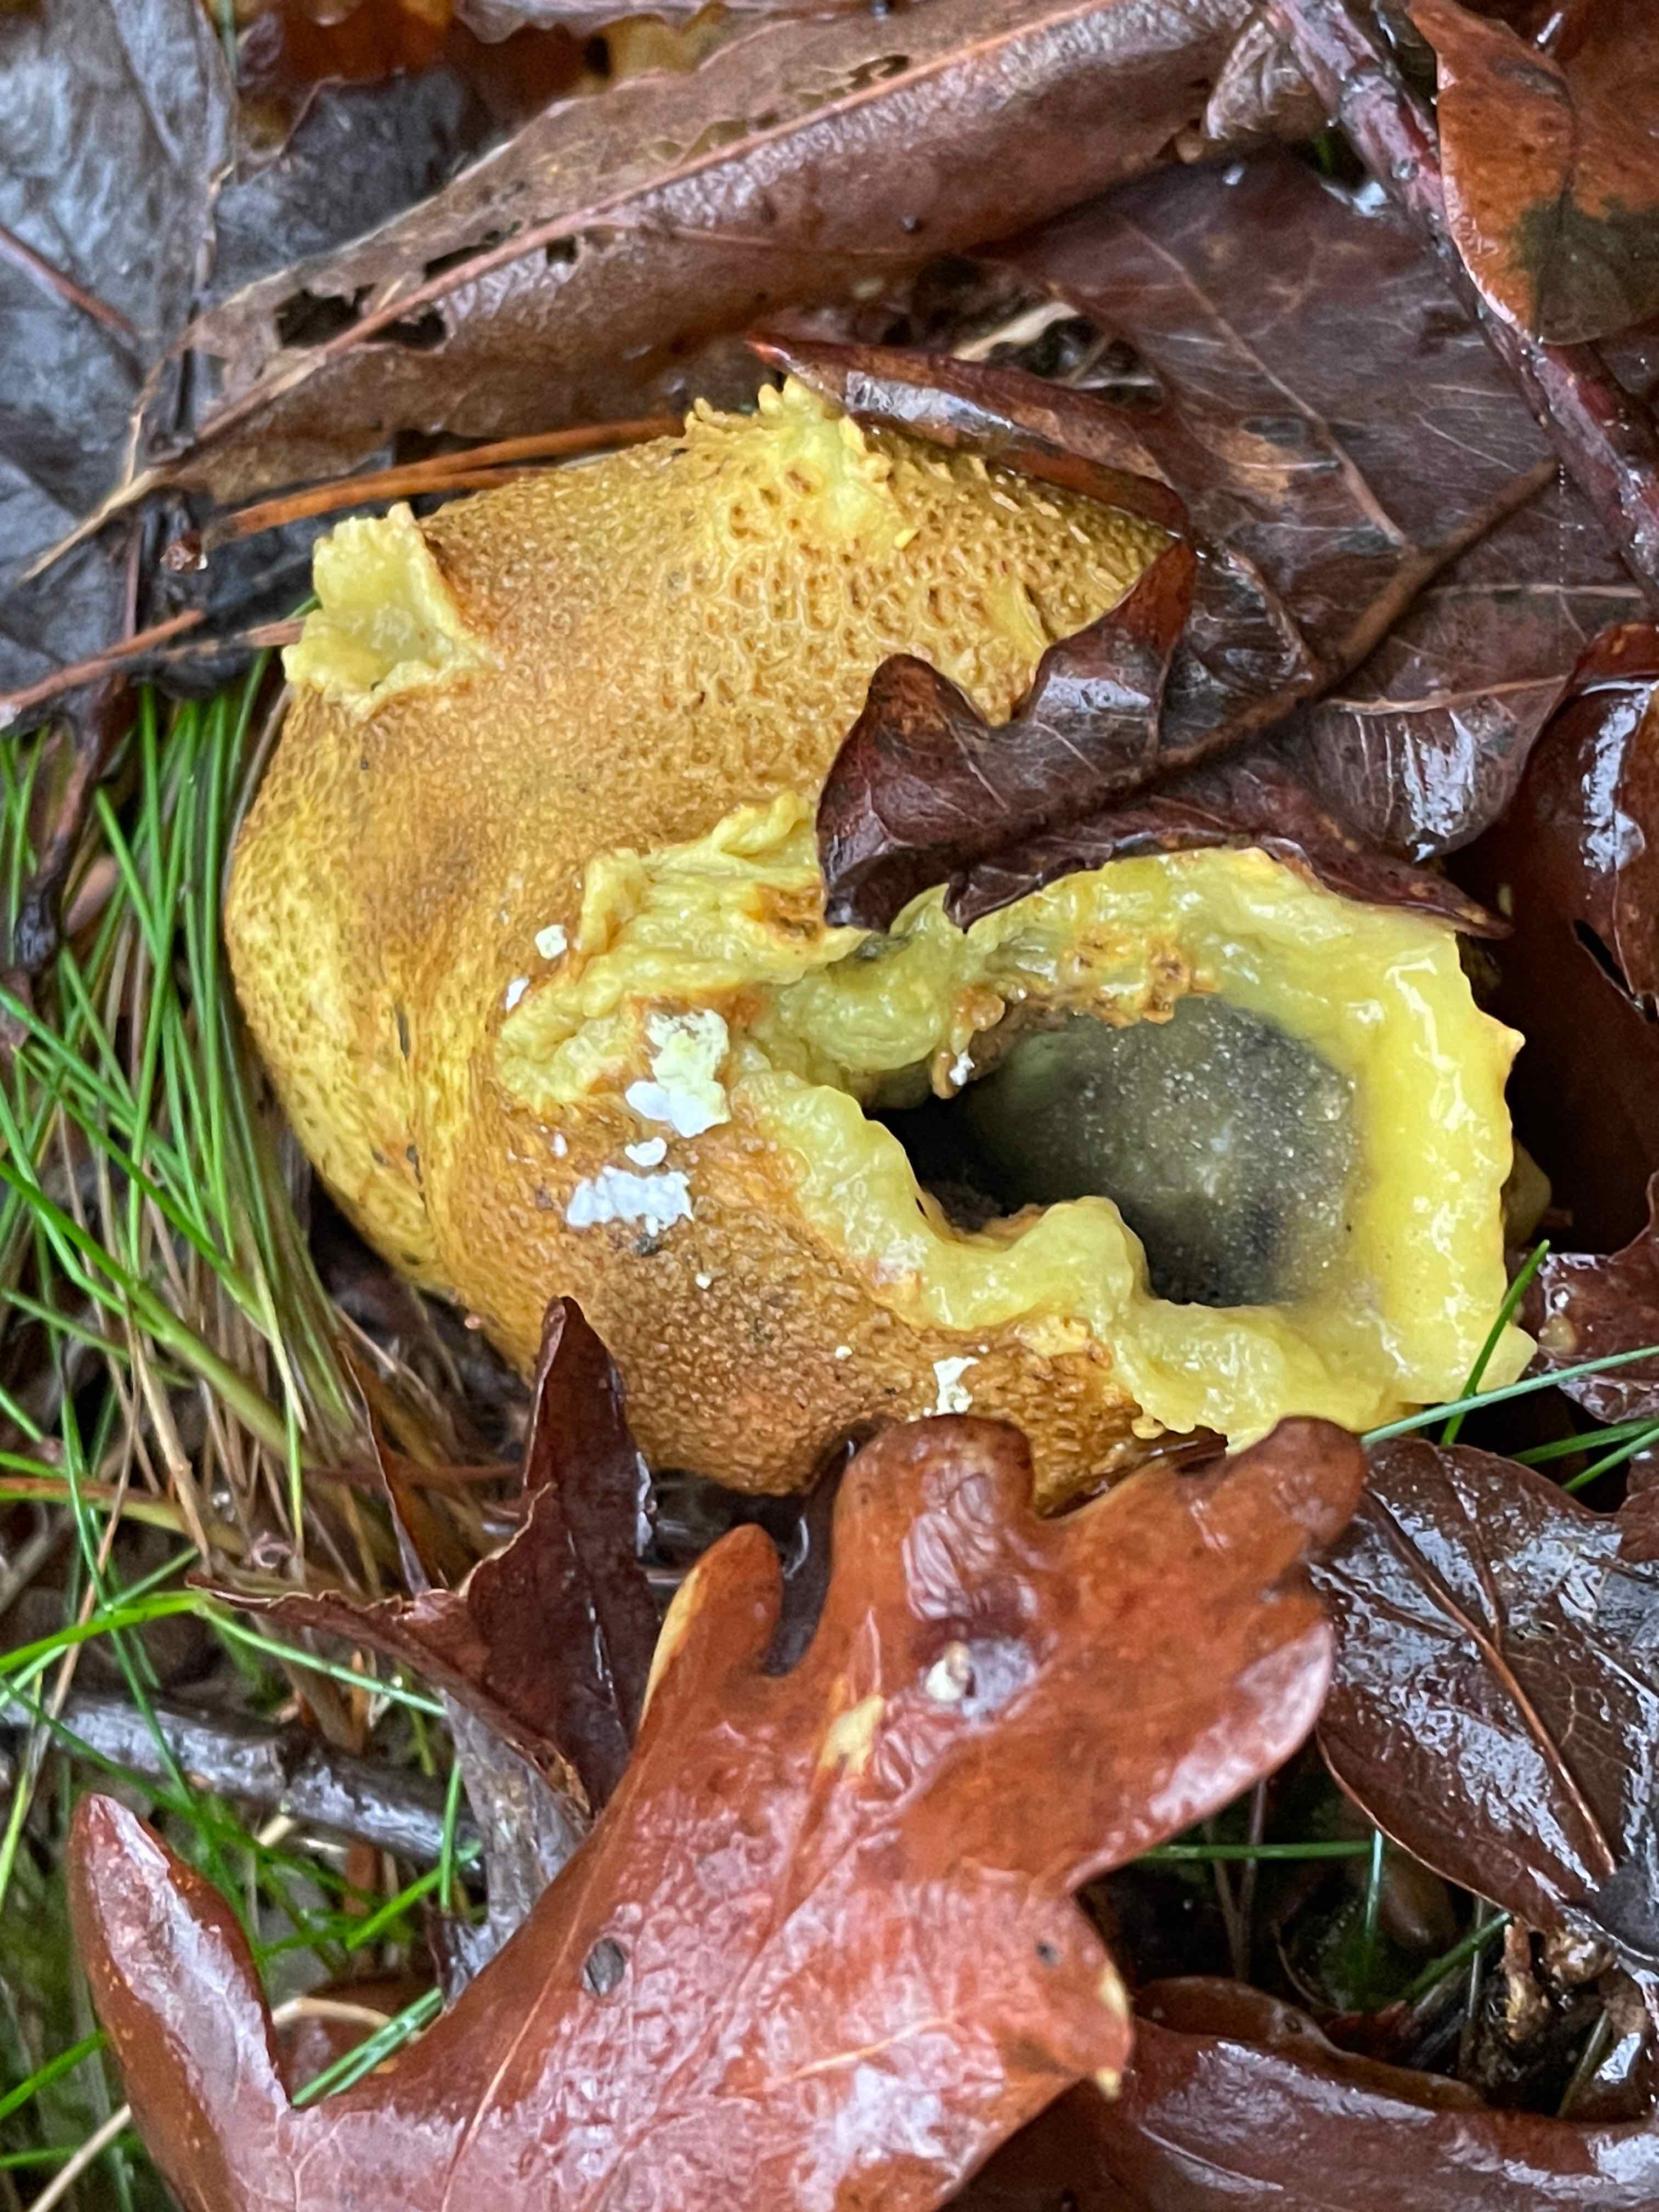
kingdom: Fungi
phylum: Basidiomycota
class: Agaricomycetes
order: Boletales
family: Sclerodermataceae
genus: Scleroderma
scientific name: Scleroderma citrinum
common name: almindelig bruskbold
